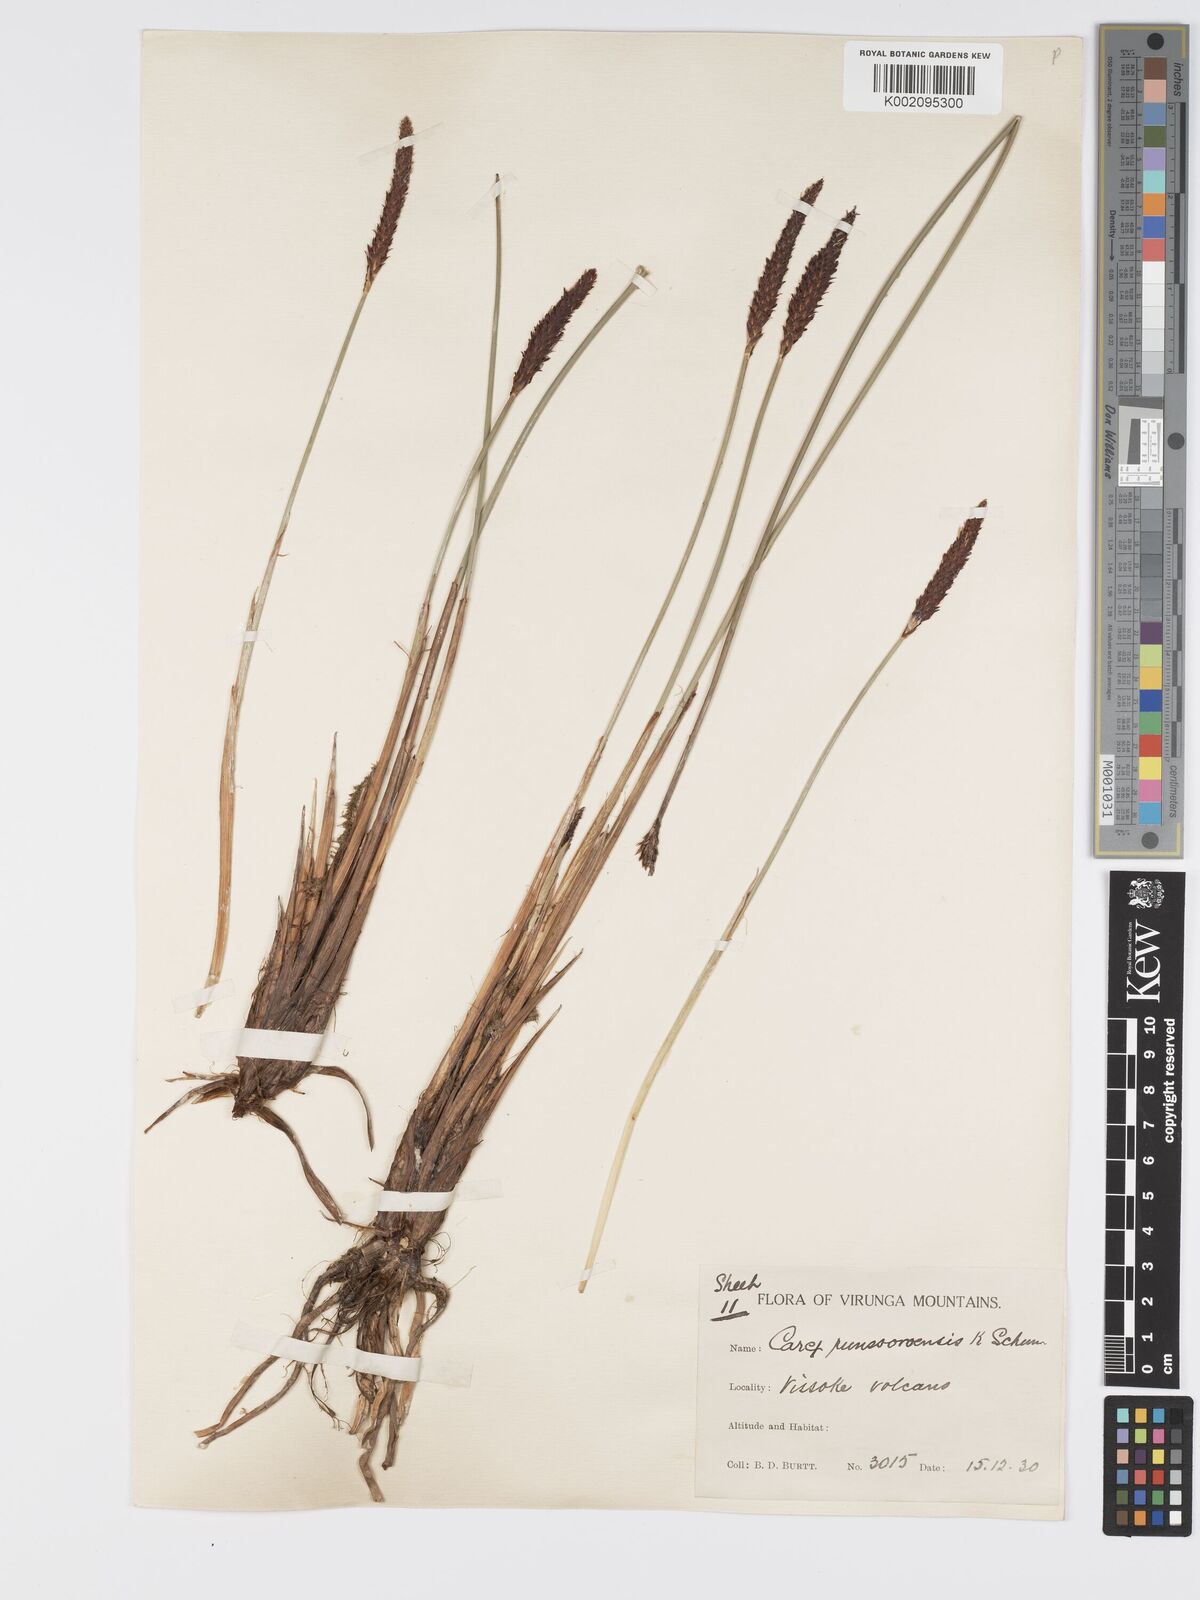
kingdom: Plantae
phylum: Tracheophyta
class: Liliopsida
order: Poales
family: Cyperaceae
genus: Carex
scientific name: Carex runssoroensis
